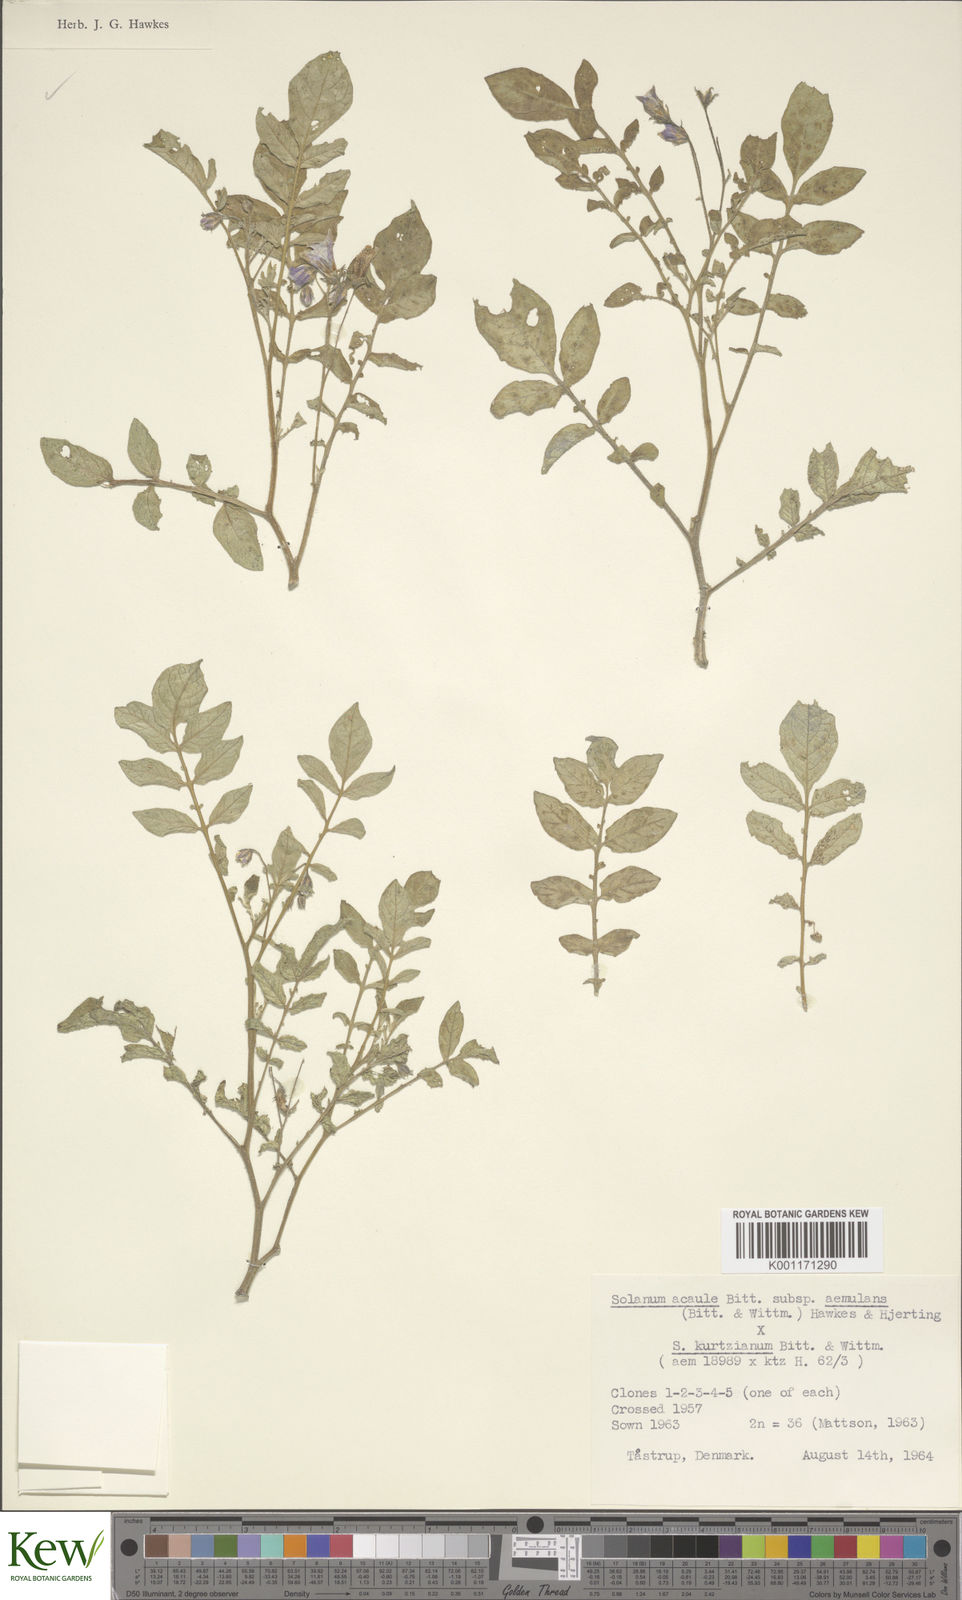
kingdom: Plantae
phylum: Tracheophyta
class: Magnoliopsida
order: Solanales
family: Solanaceae
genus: Solanum
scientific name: Solanum aemulans
